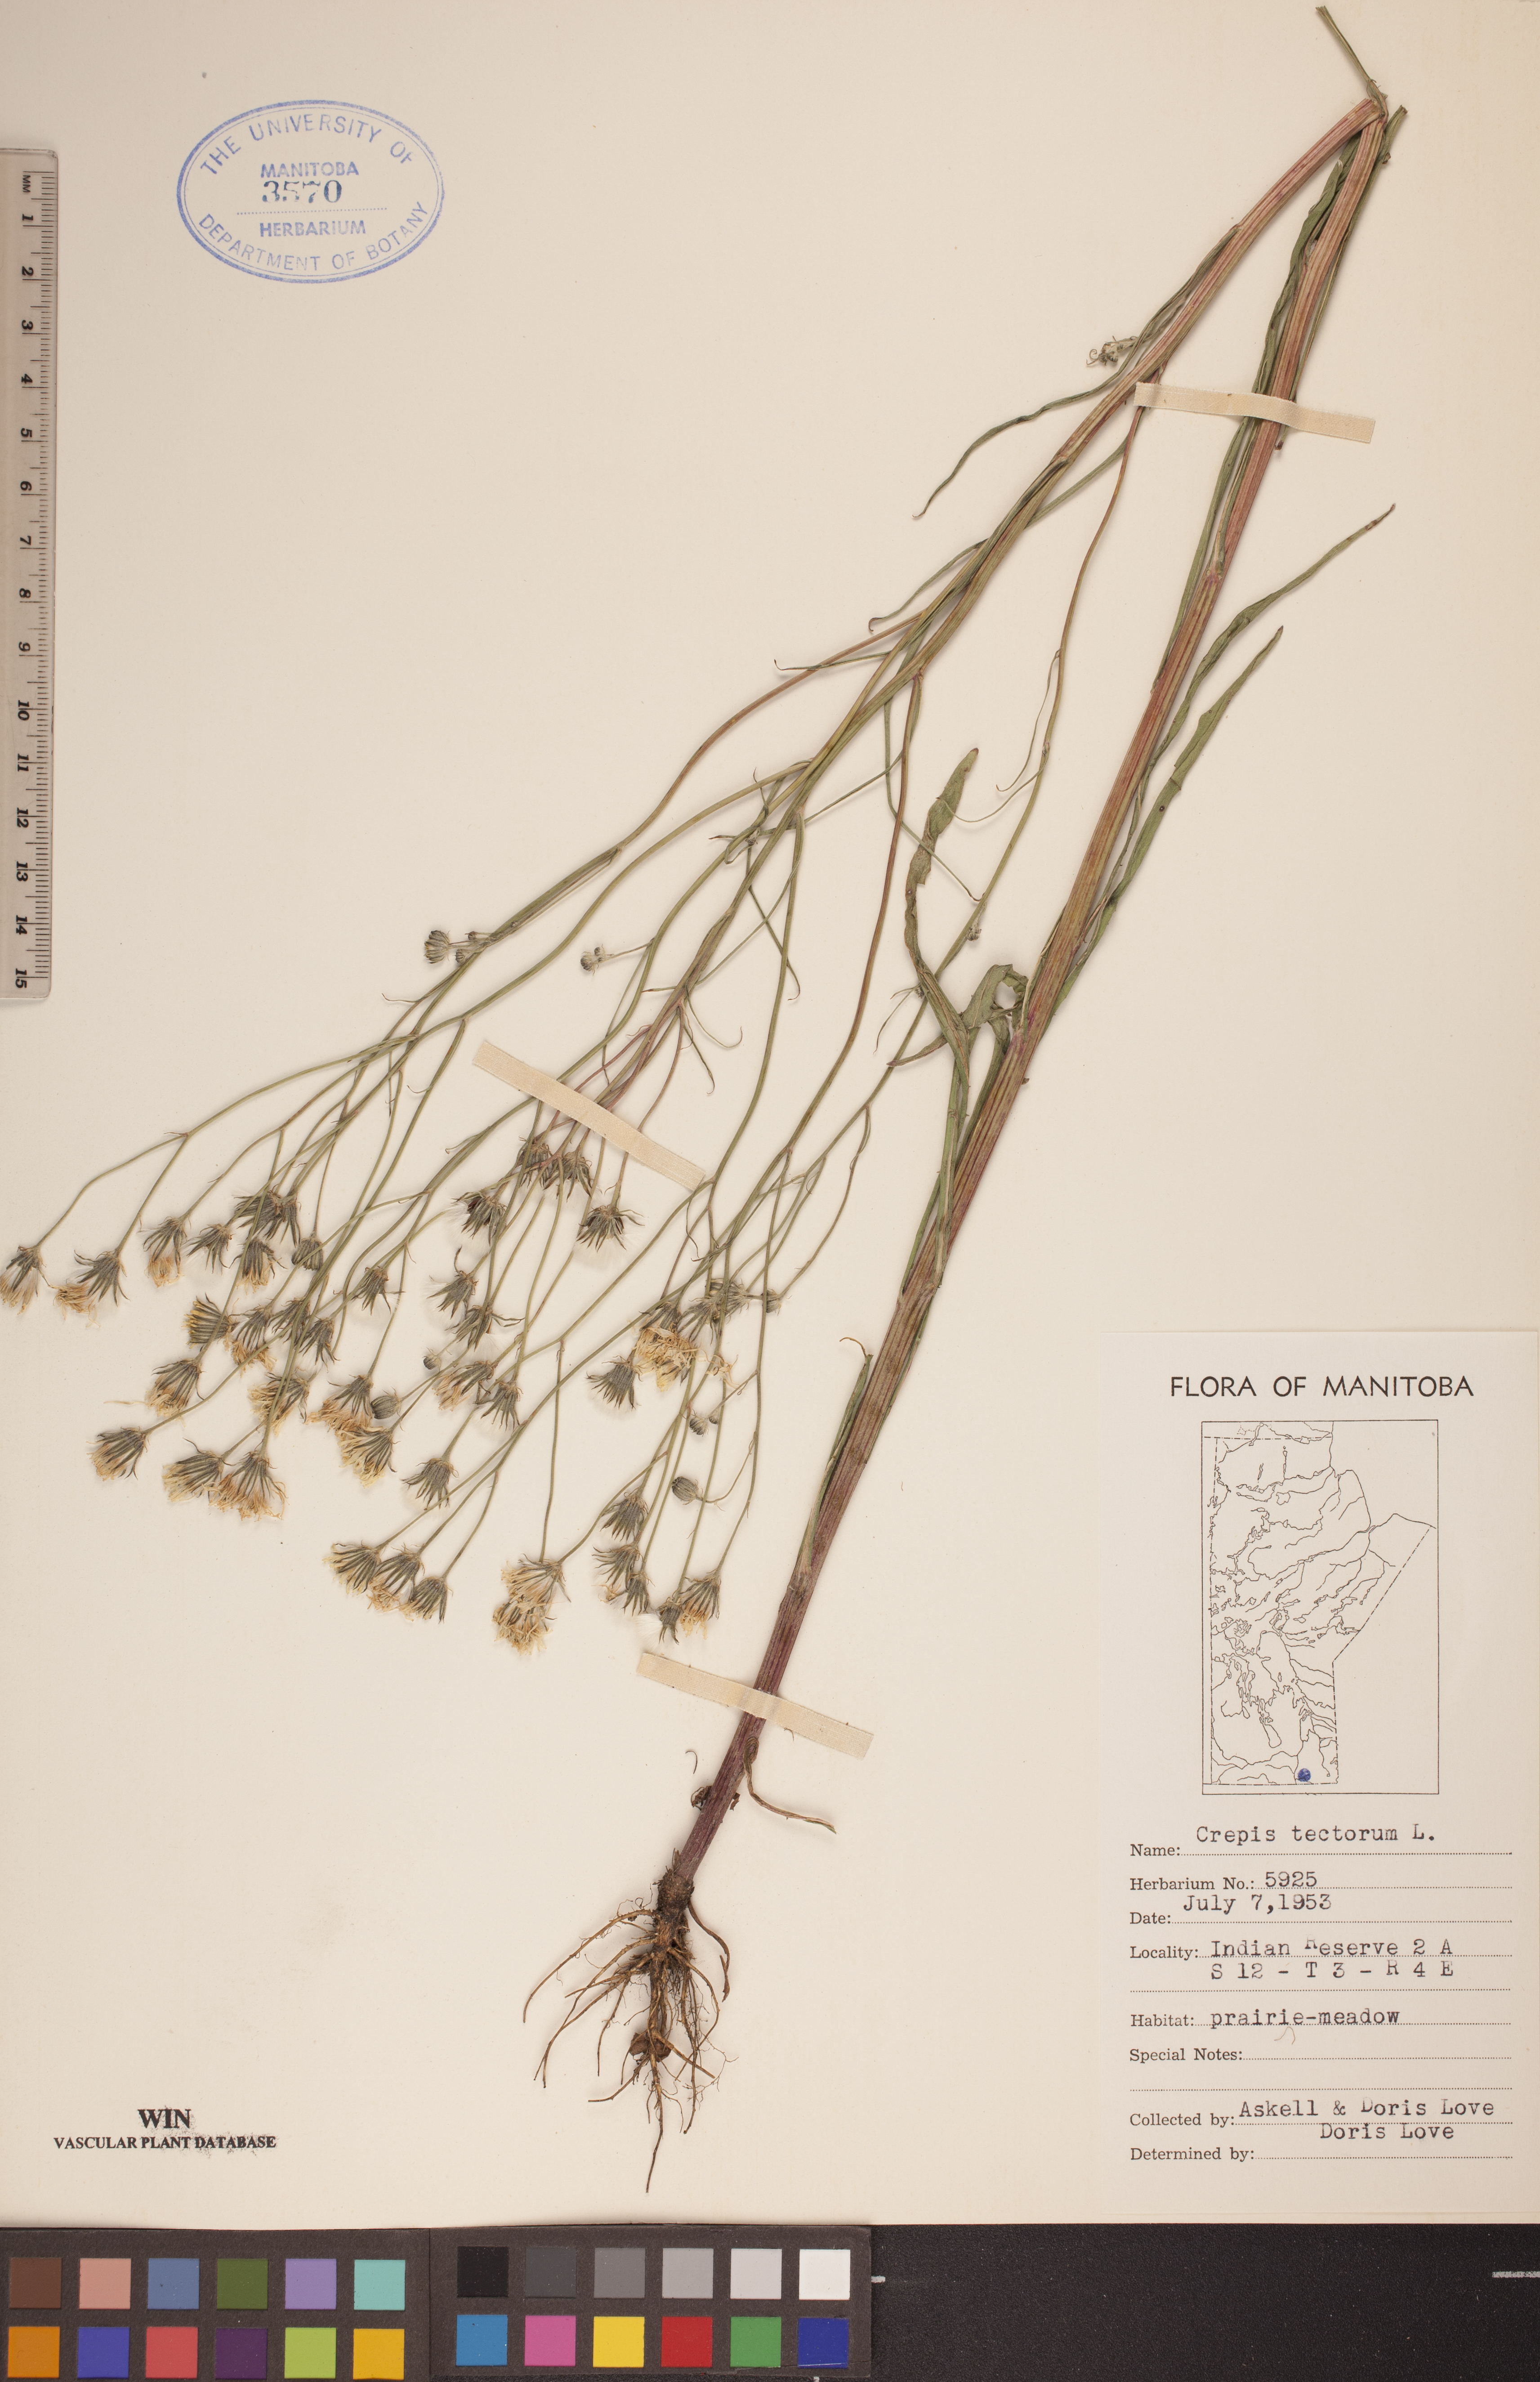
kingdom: Plantae
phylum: Tracheophyta
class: Magnoliopsida
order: Asterales
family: Asteraceae
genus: Crepis
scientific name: Crepis tectorum
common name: Narrow-leaved hawk's-beard
